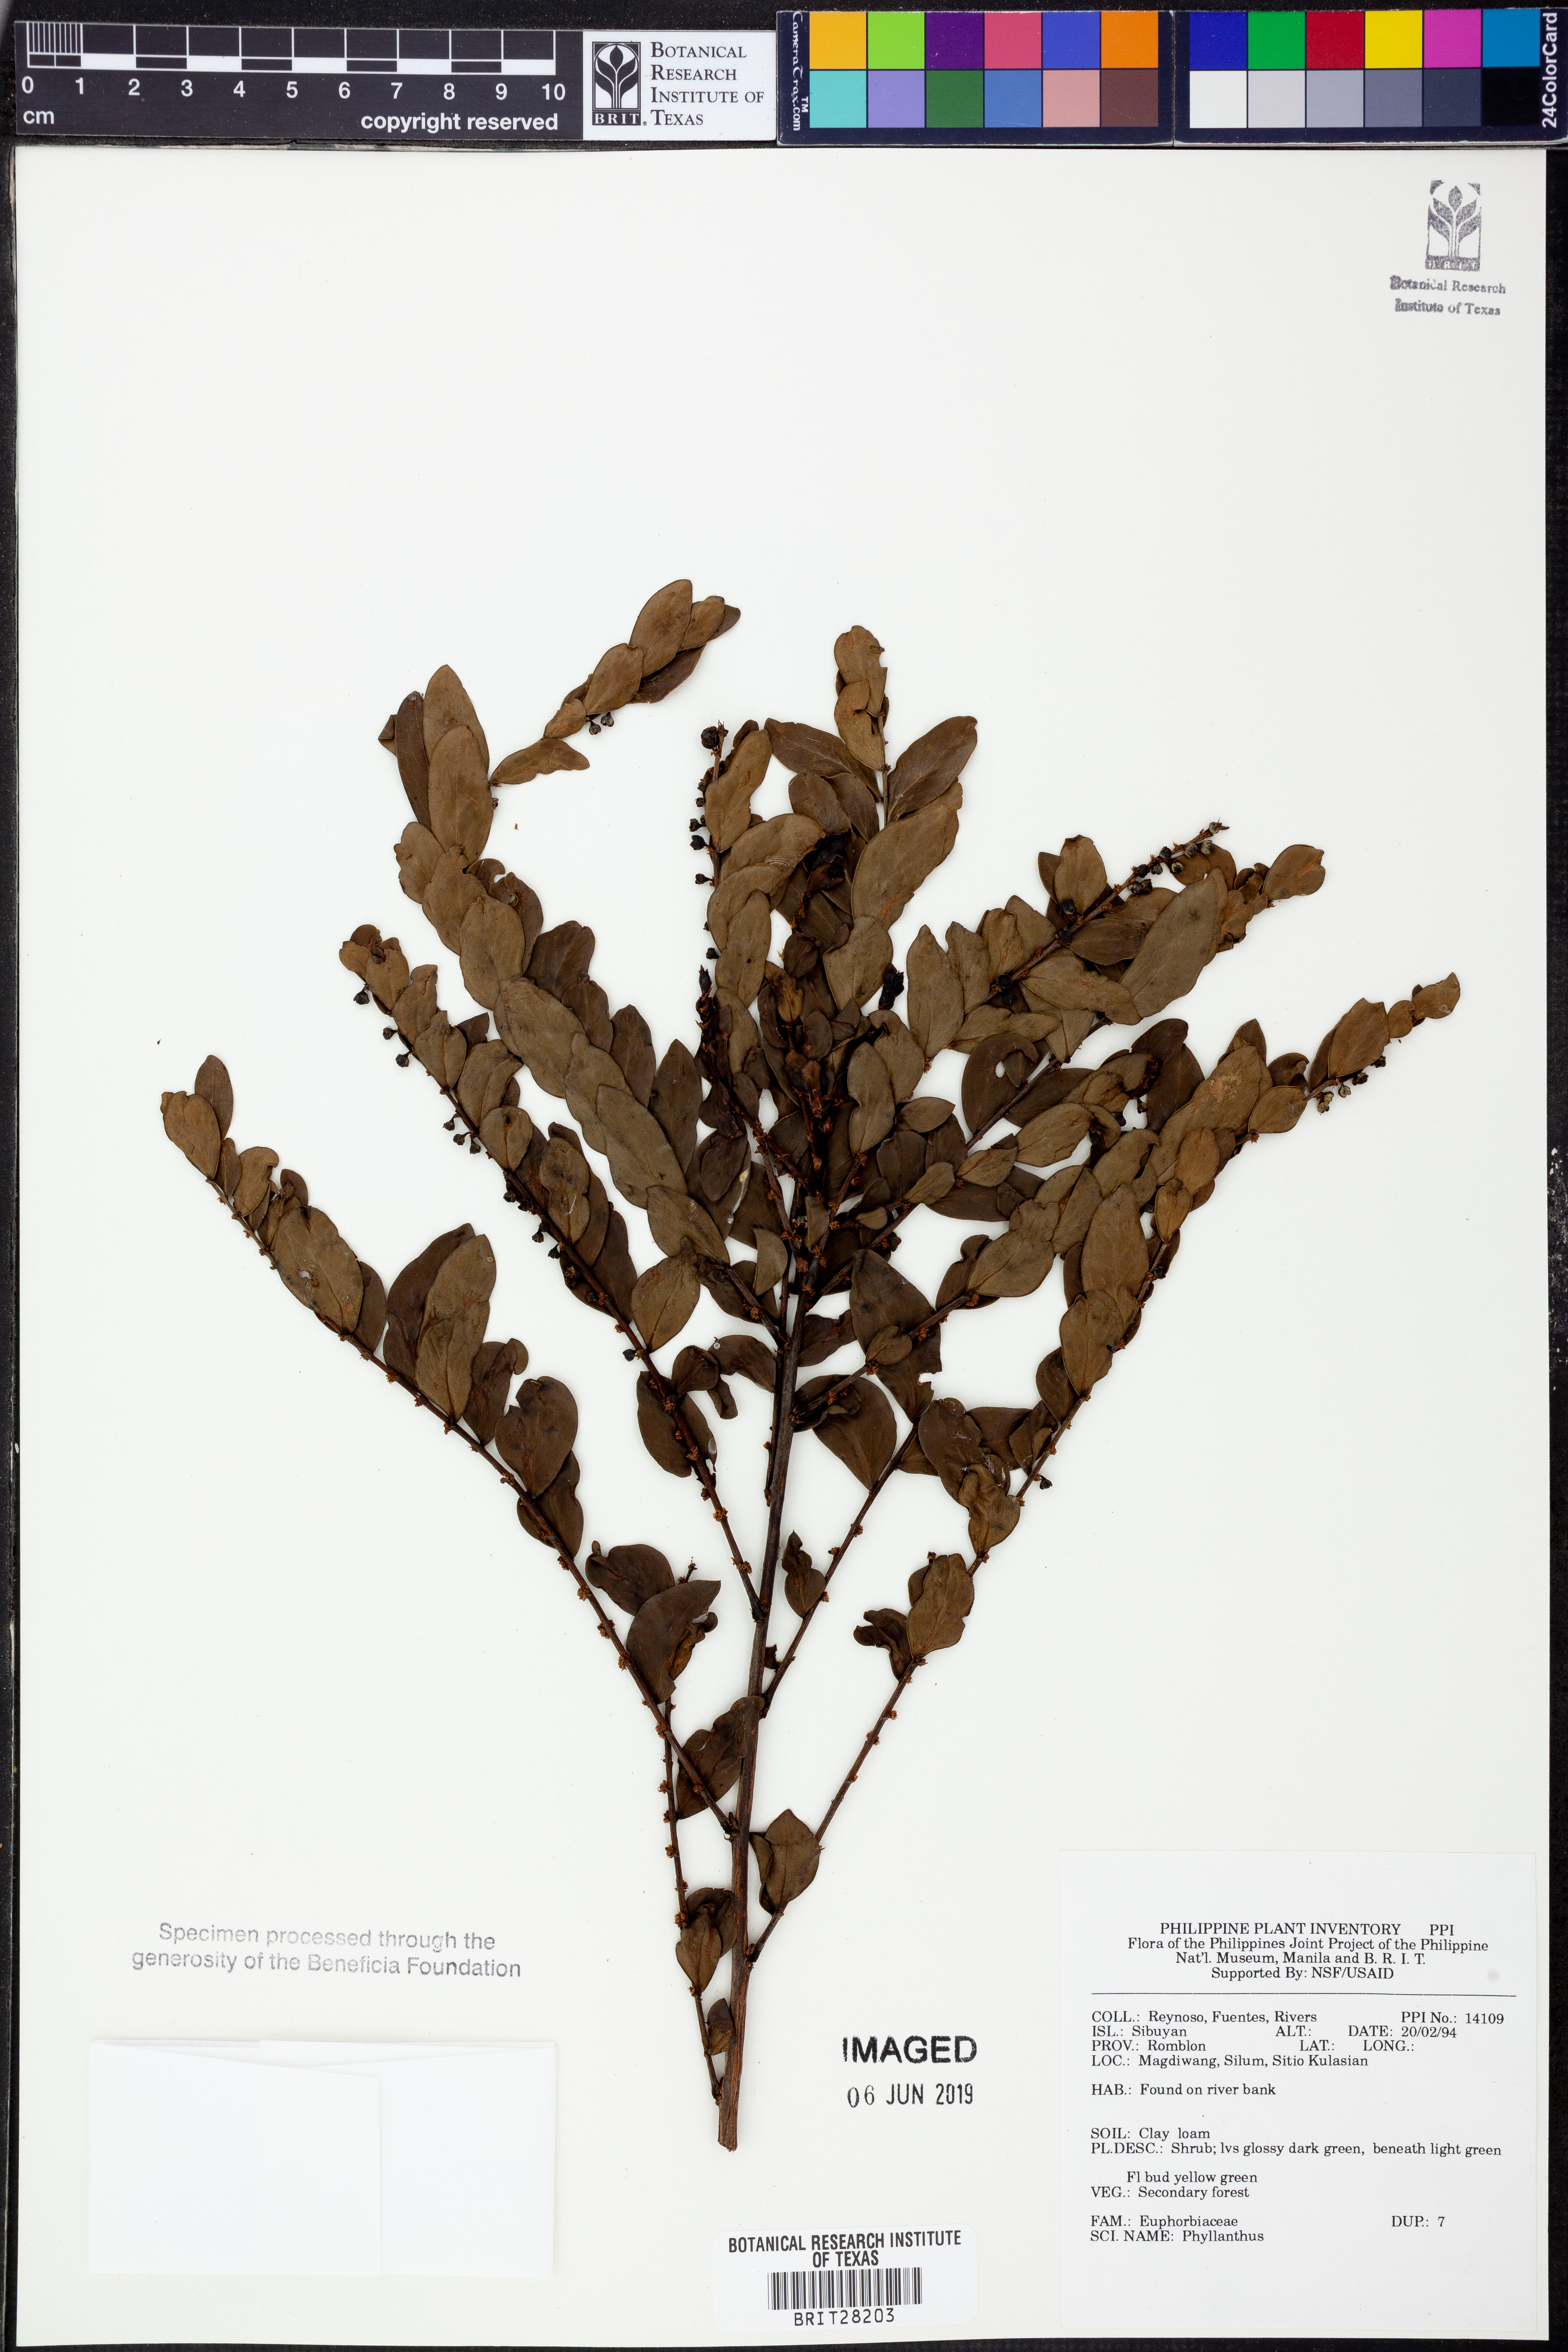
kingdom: Plantae
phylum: Tracheophyta
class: Magnoliopsida
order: Malpighiales
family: Phyllanthaceae
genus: Phyllanthus
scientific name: Phyllanthus
